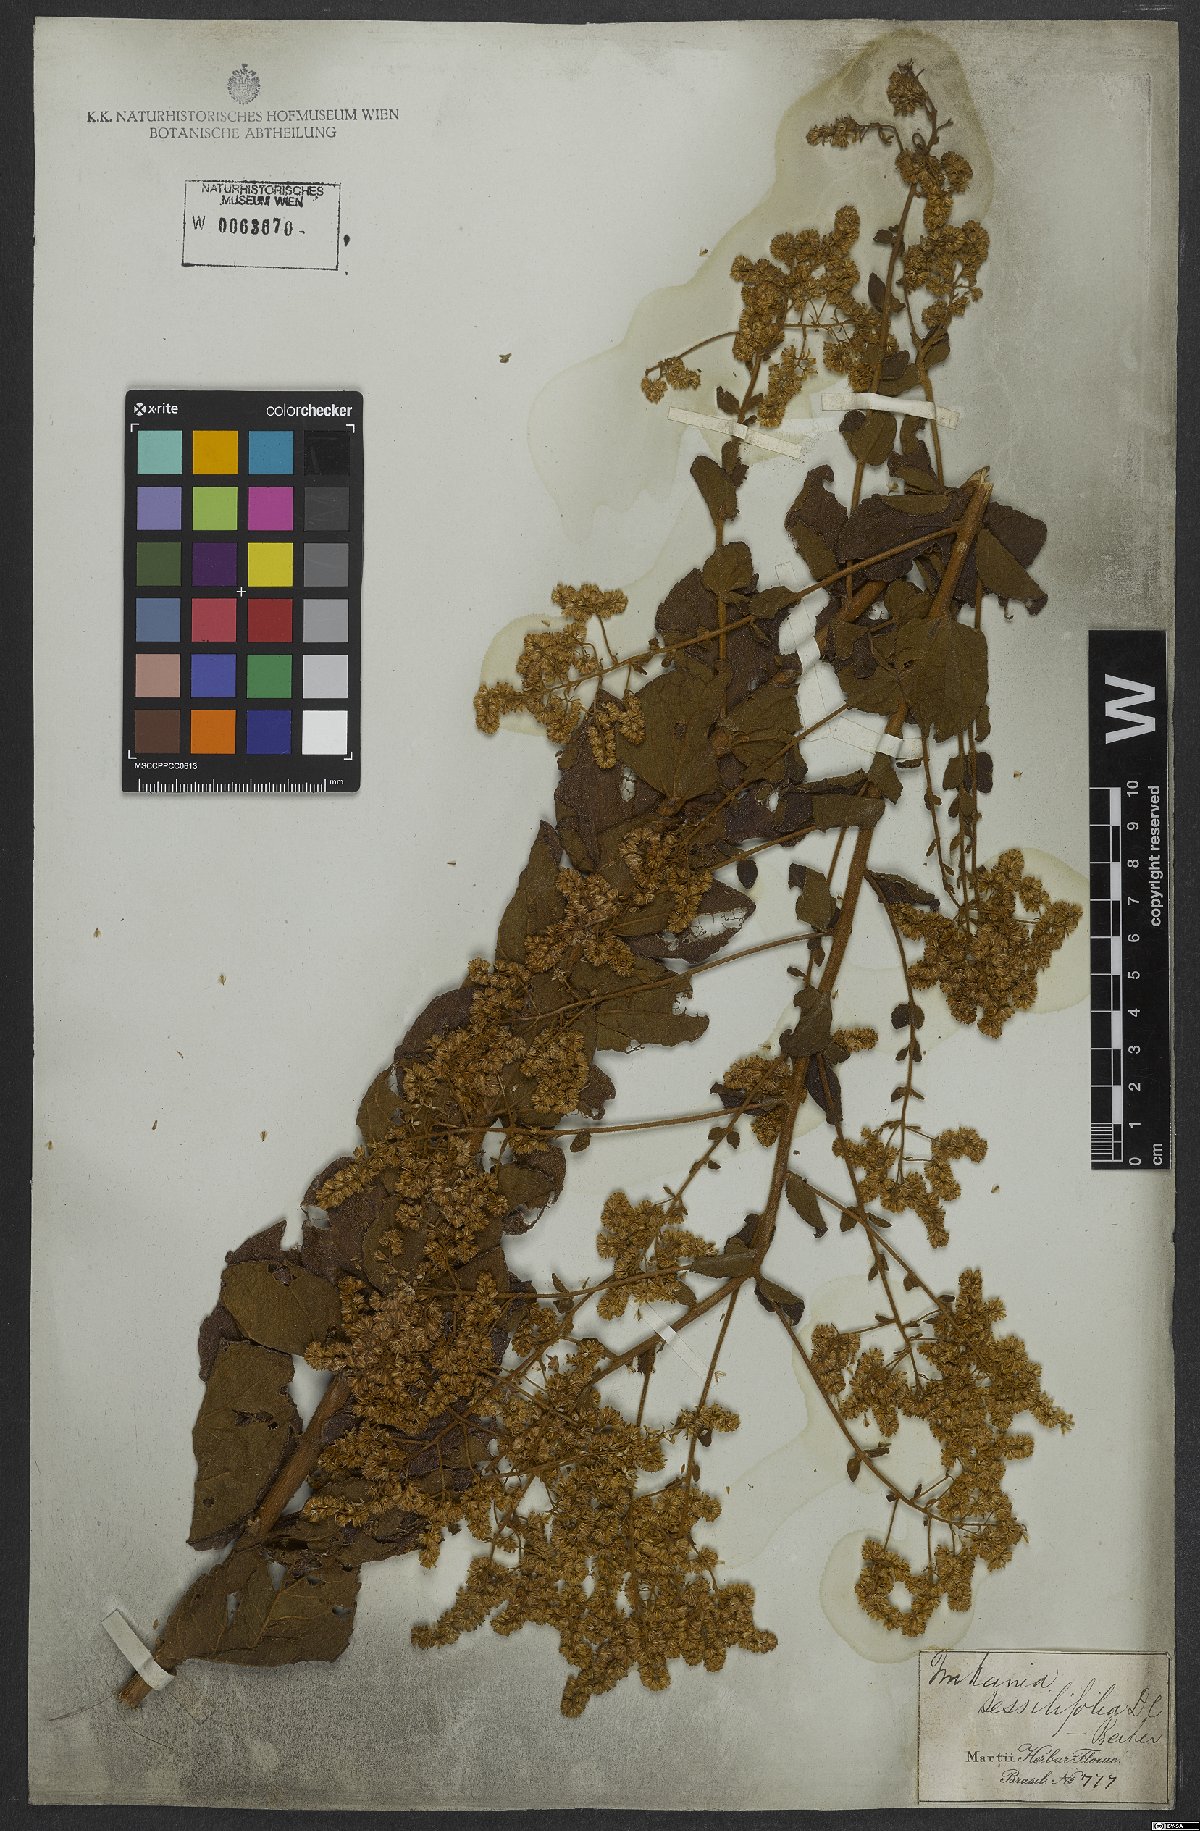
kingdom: Plantae
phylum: Tracheophyta
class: Magnoliopsida
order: Asterales
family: Asteraceae
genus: Mikania
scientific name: Mikania sessilifolia
